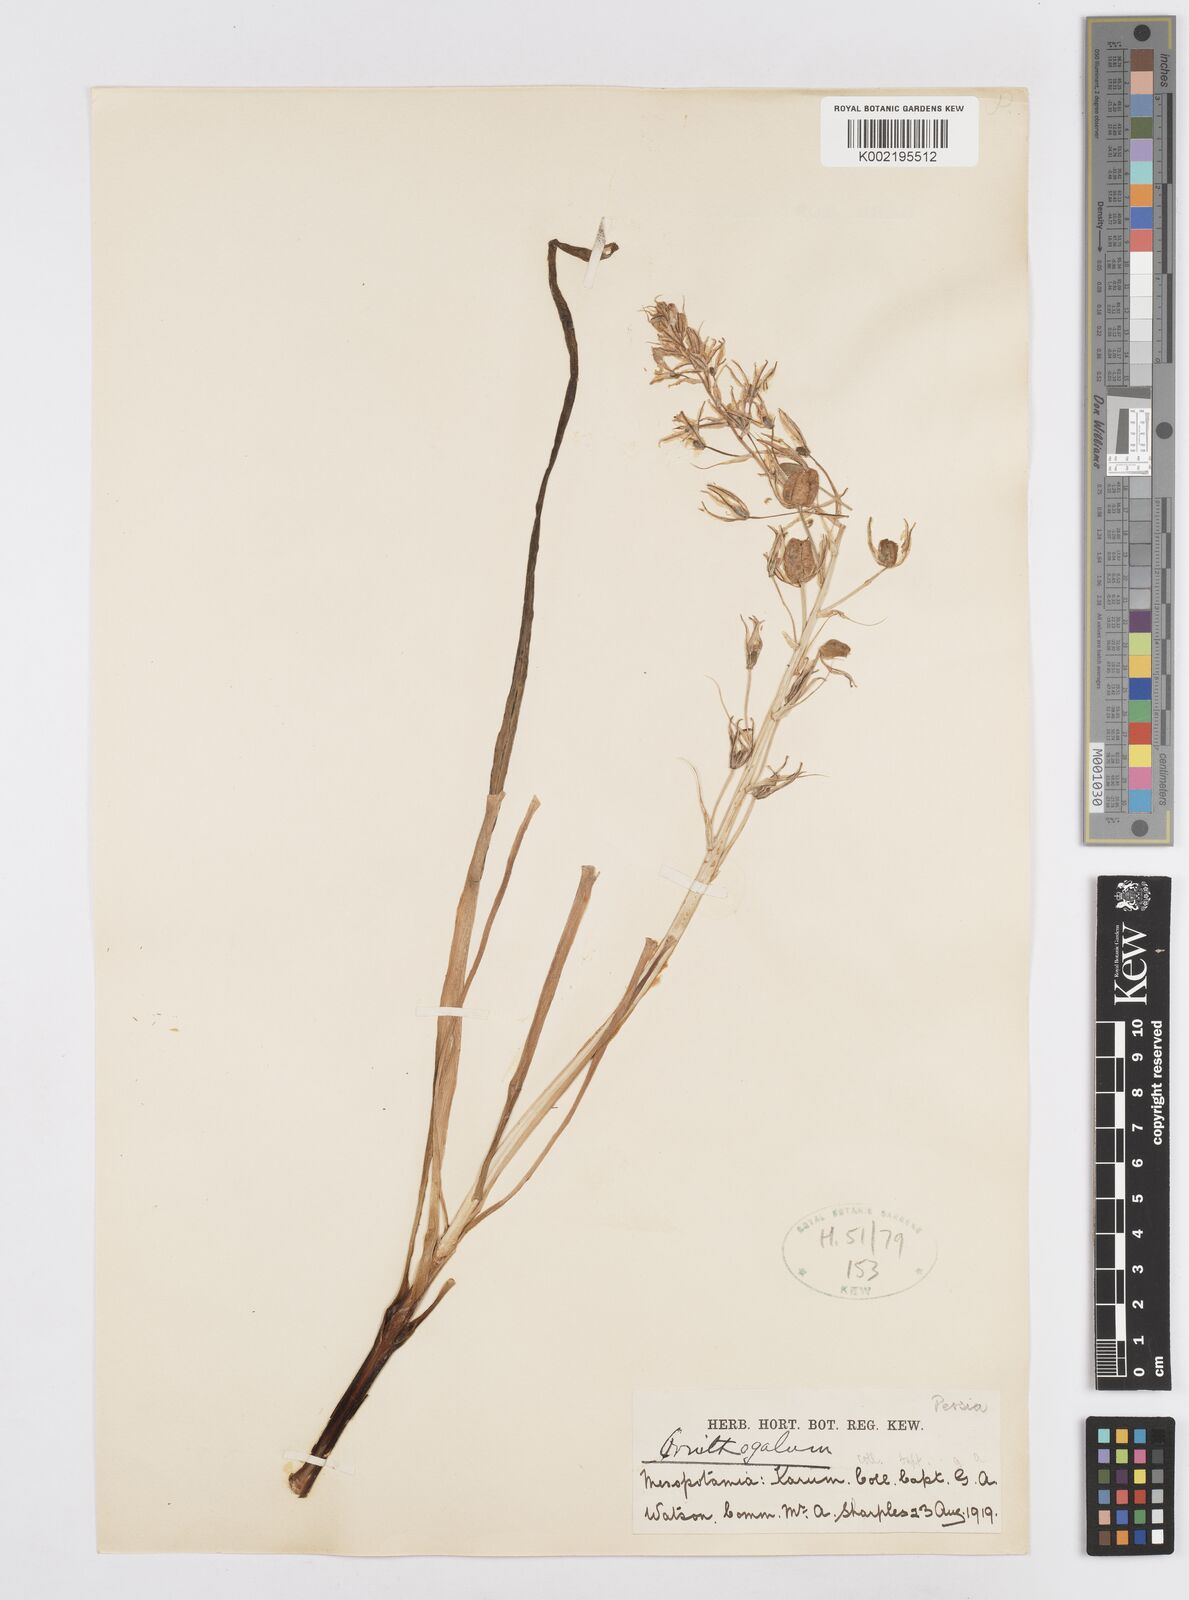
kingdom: Plantae
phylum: Tracheophyta
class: Liliopsida
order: Asparagales
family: Asparagaceae
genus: Ornithogalum
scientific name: Ornithogalum
